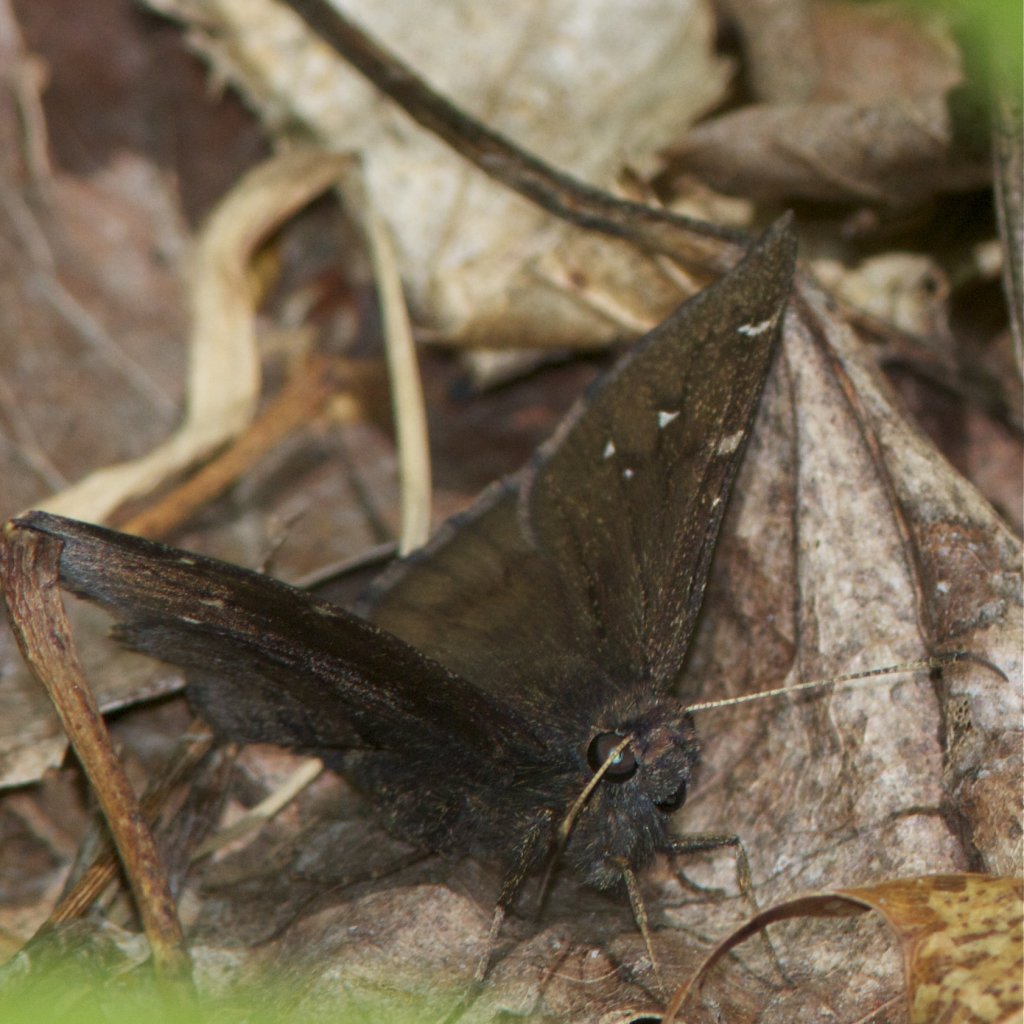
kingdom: Animalia
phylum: Arthropoda
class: Insecta
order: Lepidoptera
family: Hesperiidae
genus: Autochton
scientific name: Autochton
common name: Northern Cloudywing
